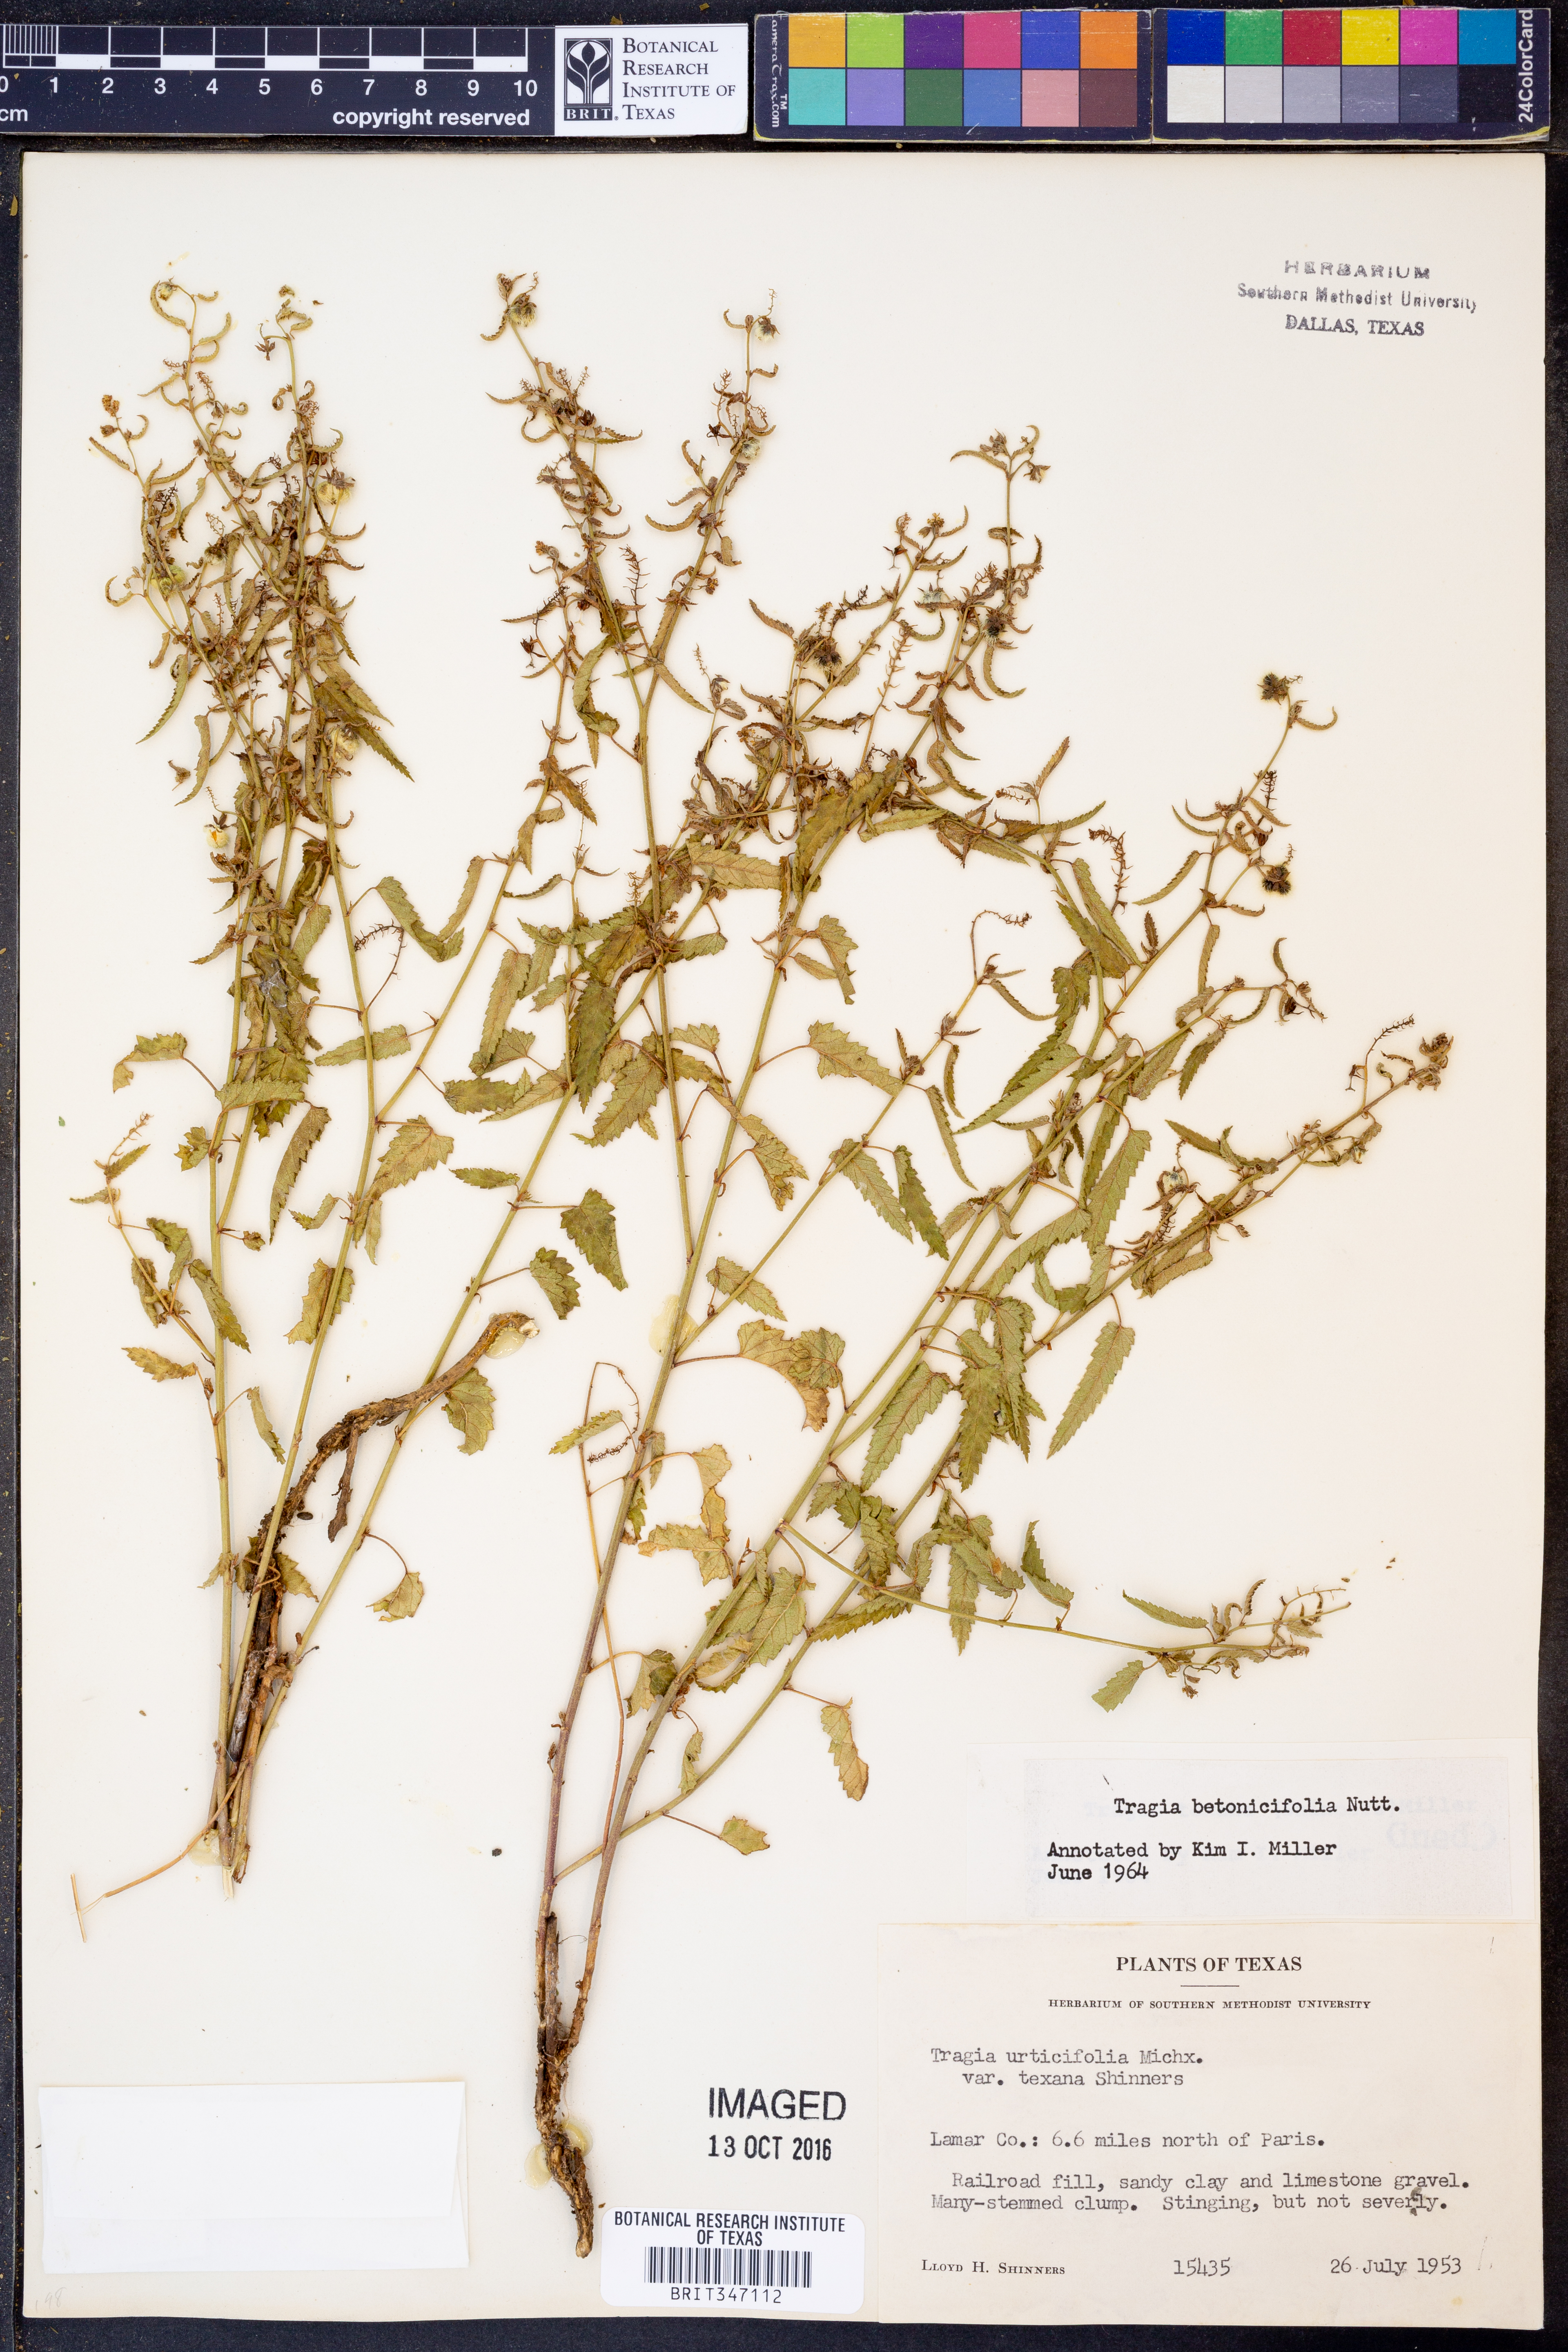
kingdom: Plantae
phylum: Tracheophyta
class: Magnoliopsida
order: Malpighiales
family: Euphorbiaceae
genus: Tragia
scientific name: Tragia betonicifolia
